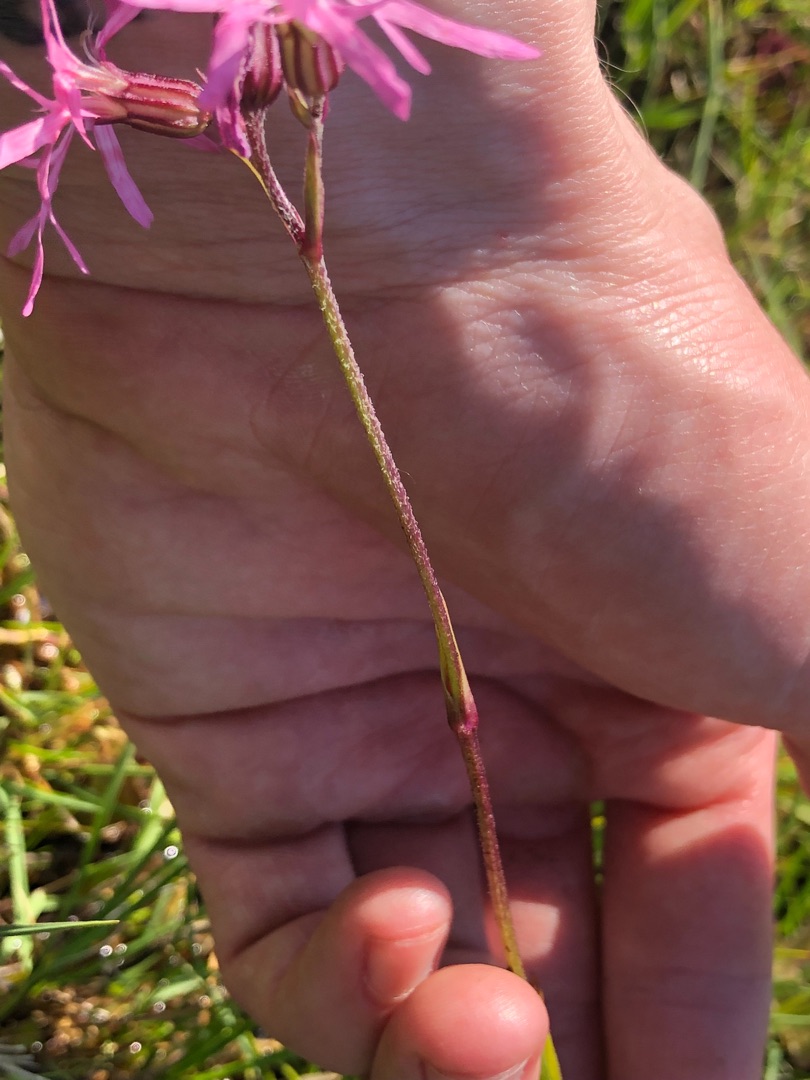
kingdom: Plantae
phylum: Tracheophyta
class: Magnoliopsida
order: Caryophyllales
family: Caryophyllaceae
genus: Silene
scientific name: Silene flos-cuculi
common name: Trævlekrone
